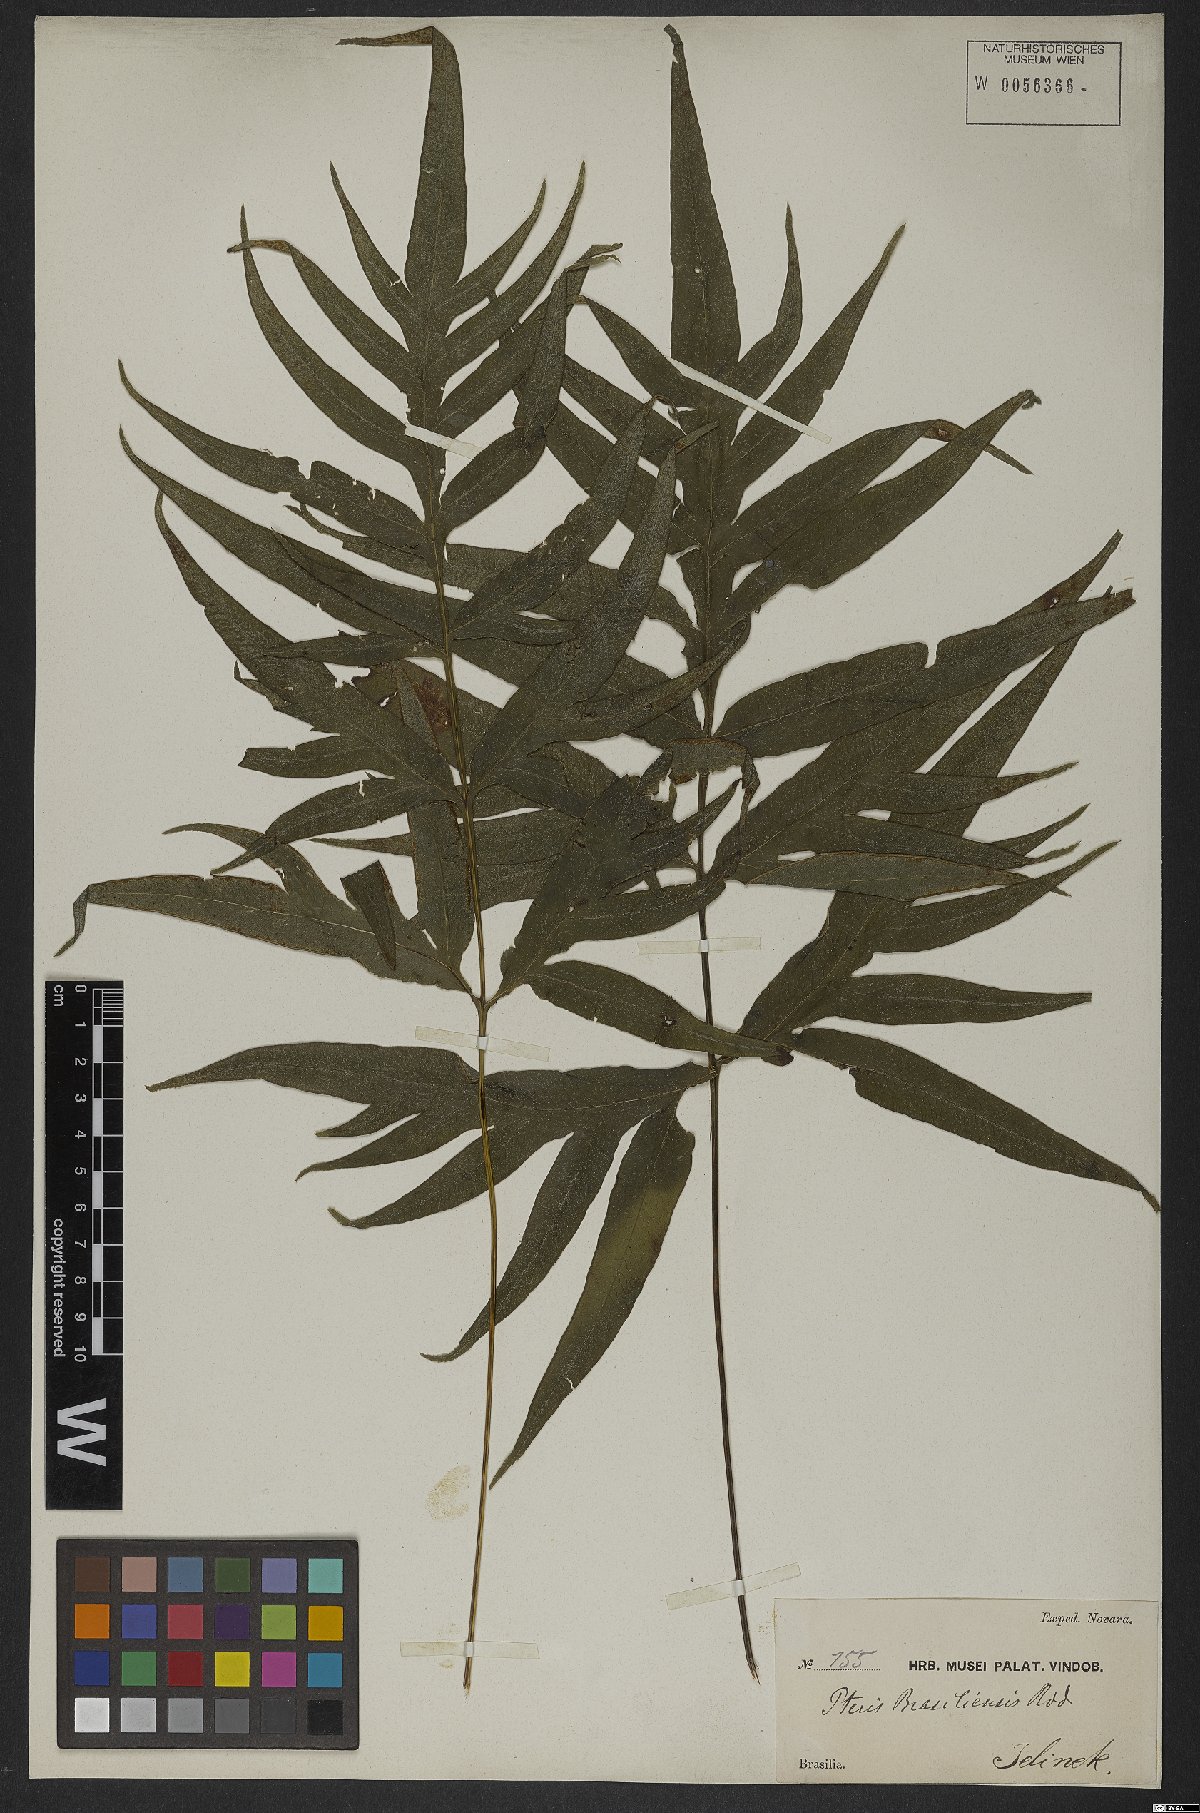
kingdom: Plantae
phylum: Tracheophyta
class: Polypodiopsida
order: Polypodiales
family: Pteridaceae
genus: Pteris
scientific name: Pteris denticulata
